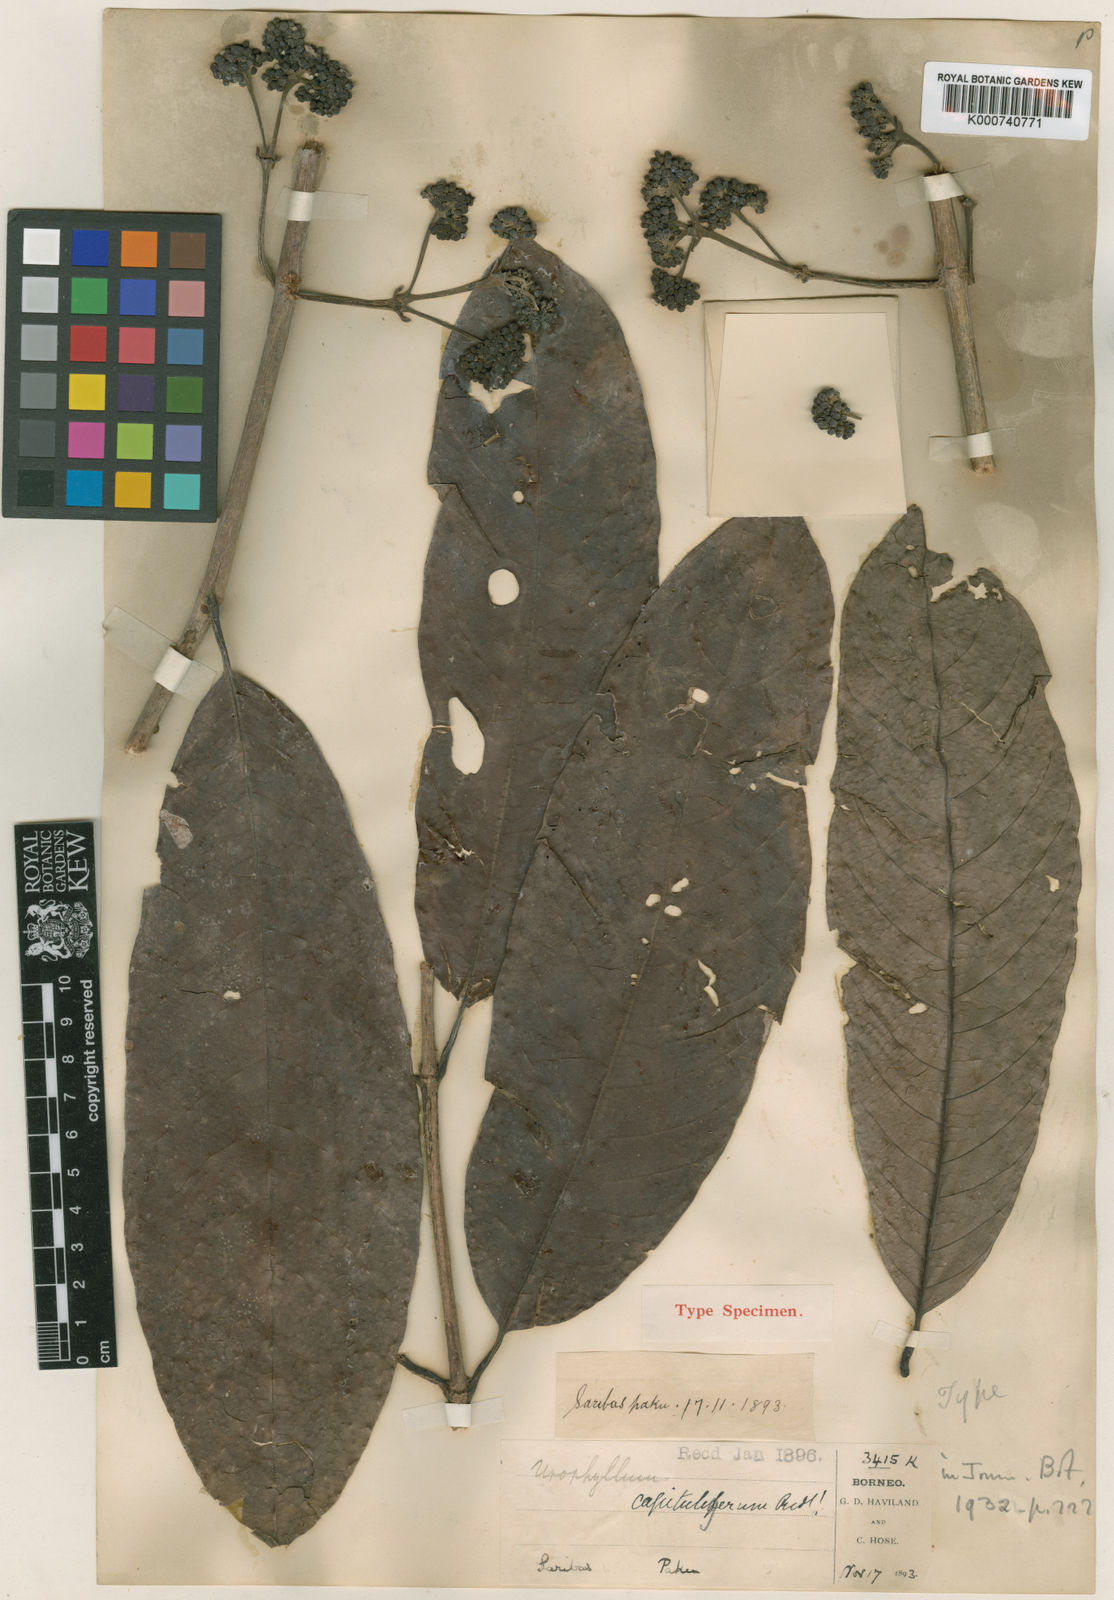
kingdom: Plantae
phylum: Tracheophyta
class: Magnoliopsida
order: Gentianales
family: Rubiaceae
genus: Urophyllum
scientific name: Urophyllum capituligerum
